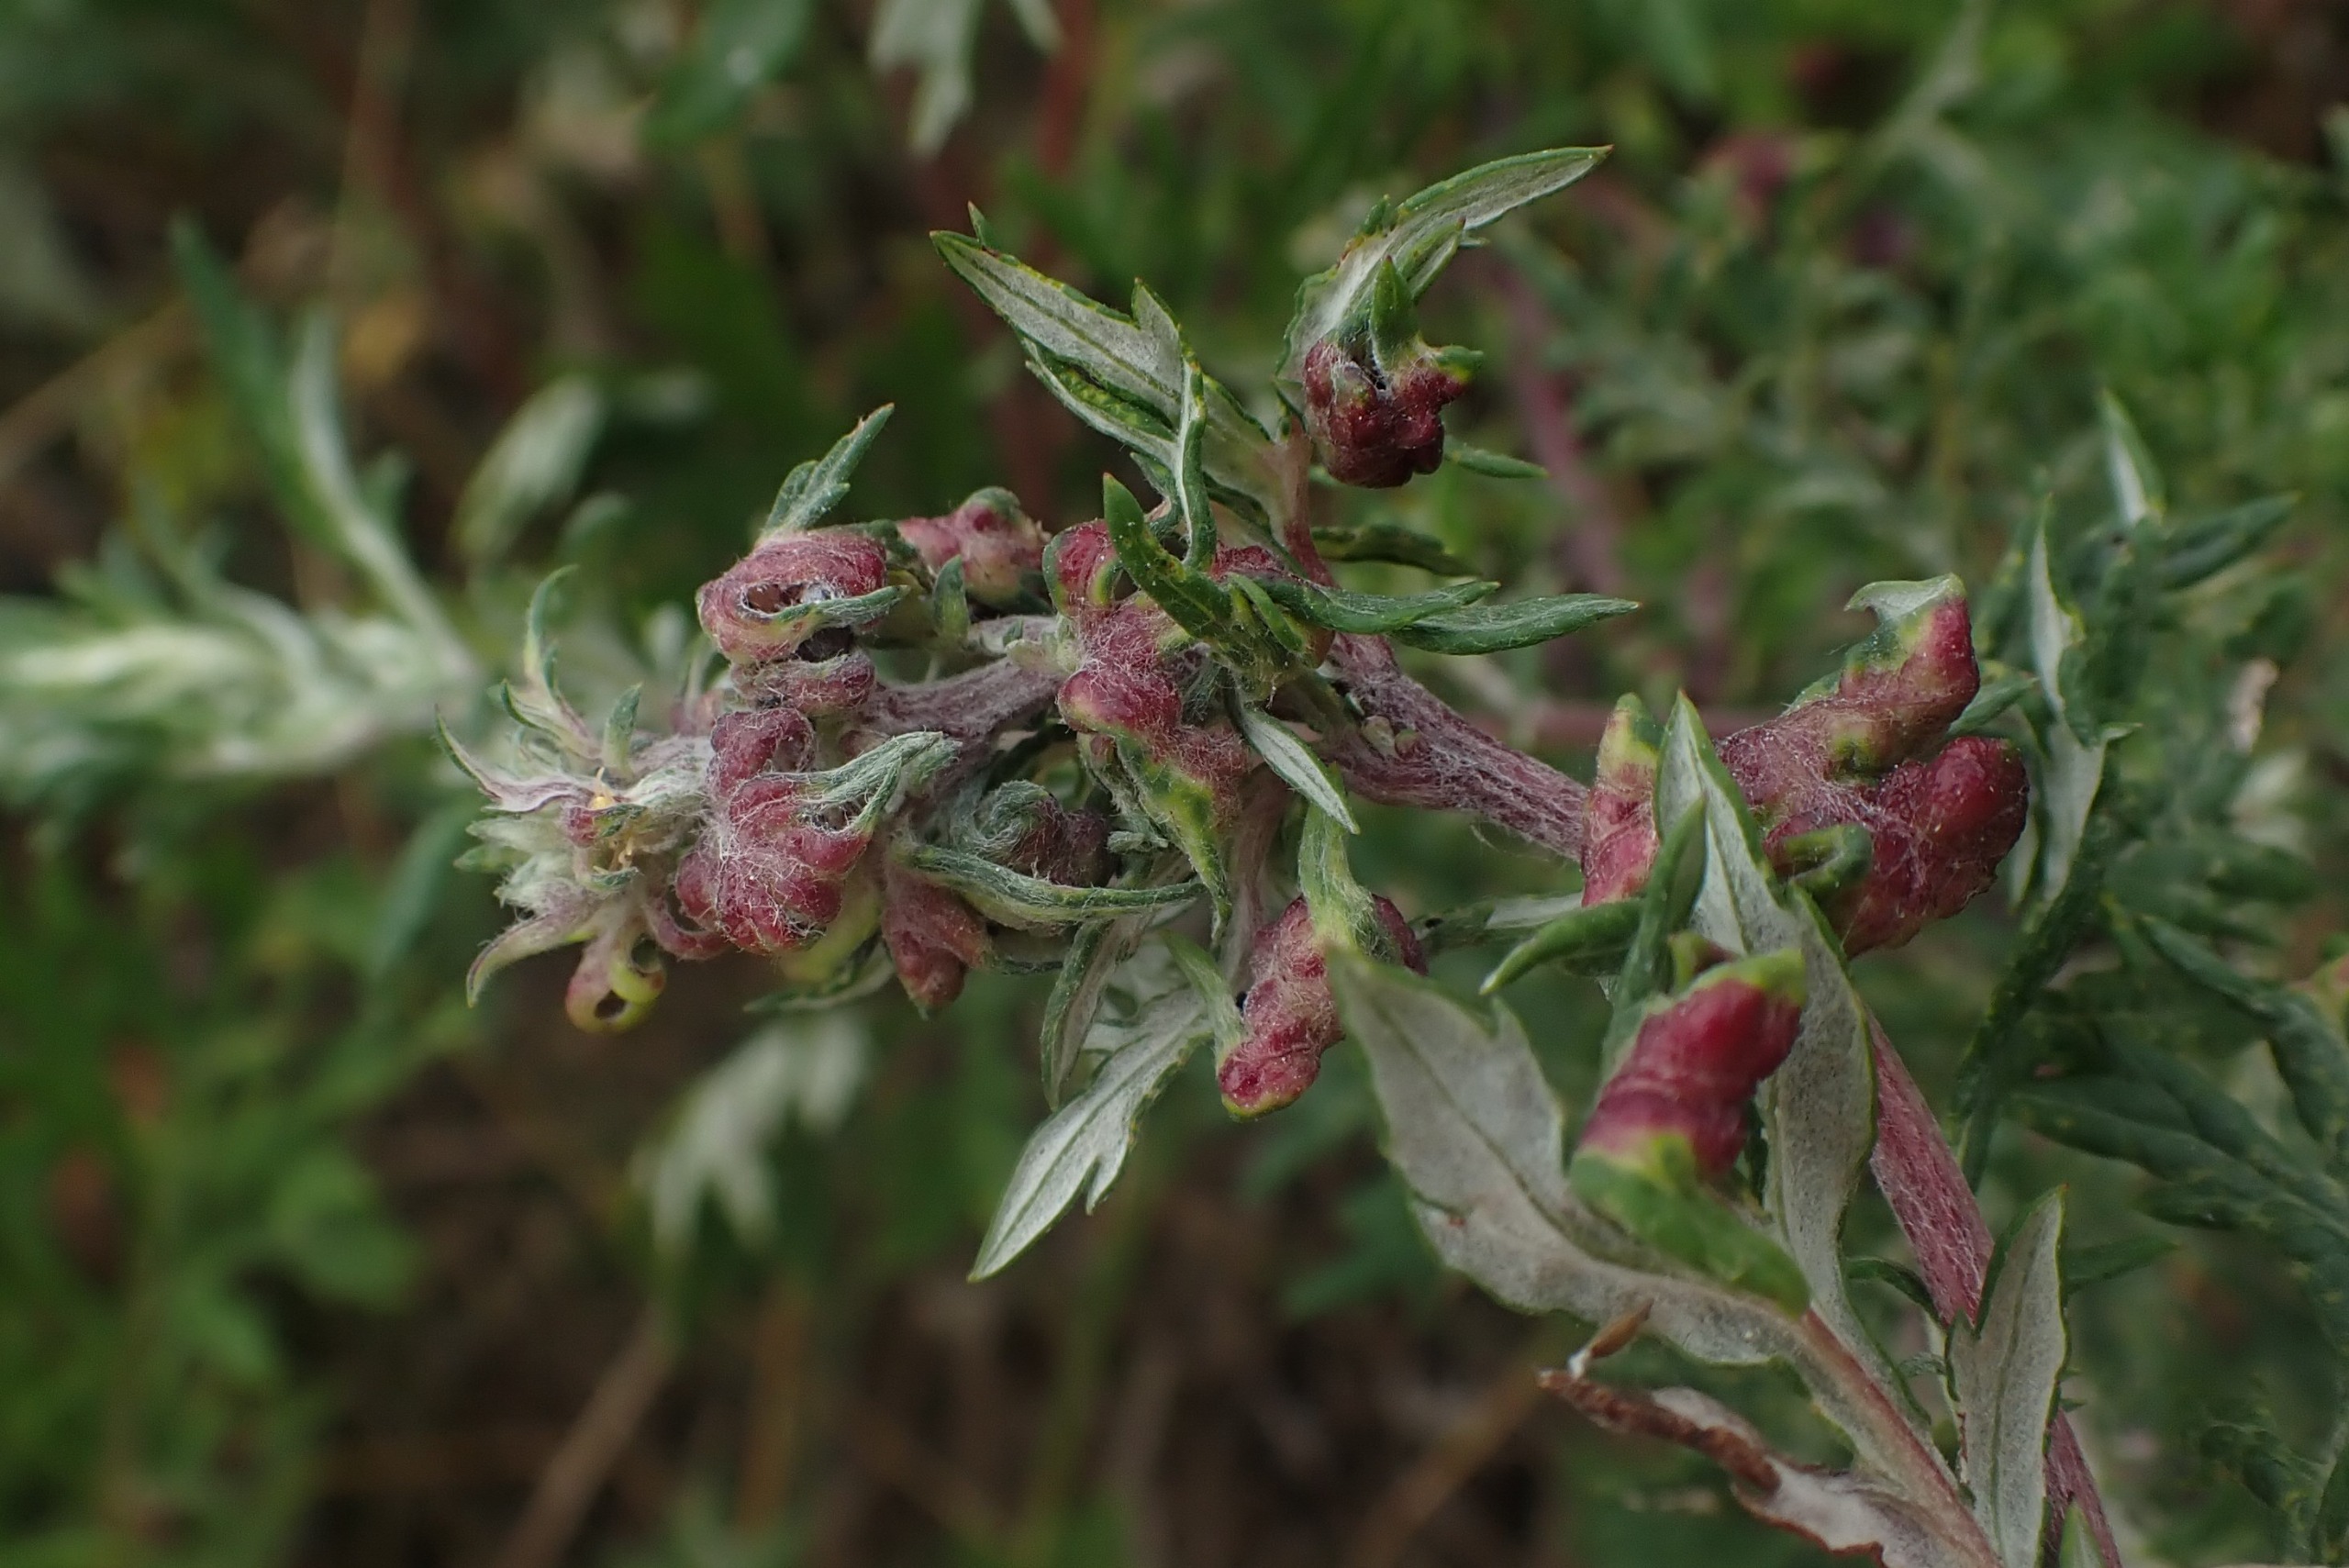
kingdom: Animalia
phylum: Arthropoda
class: Insecta
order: Hemiptera
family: Aphididae
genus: Cryptosiphum
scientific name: Cryptosiphum artemisiae
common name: Bynkegallelus
